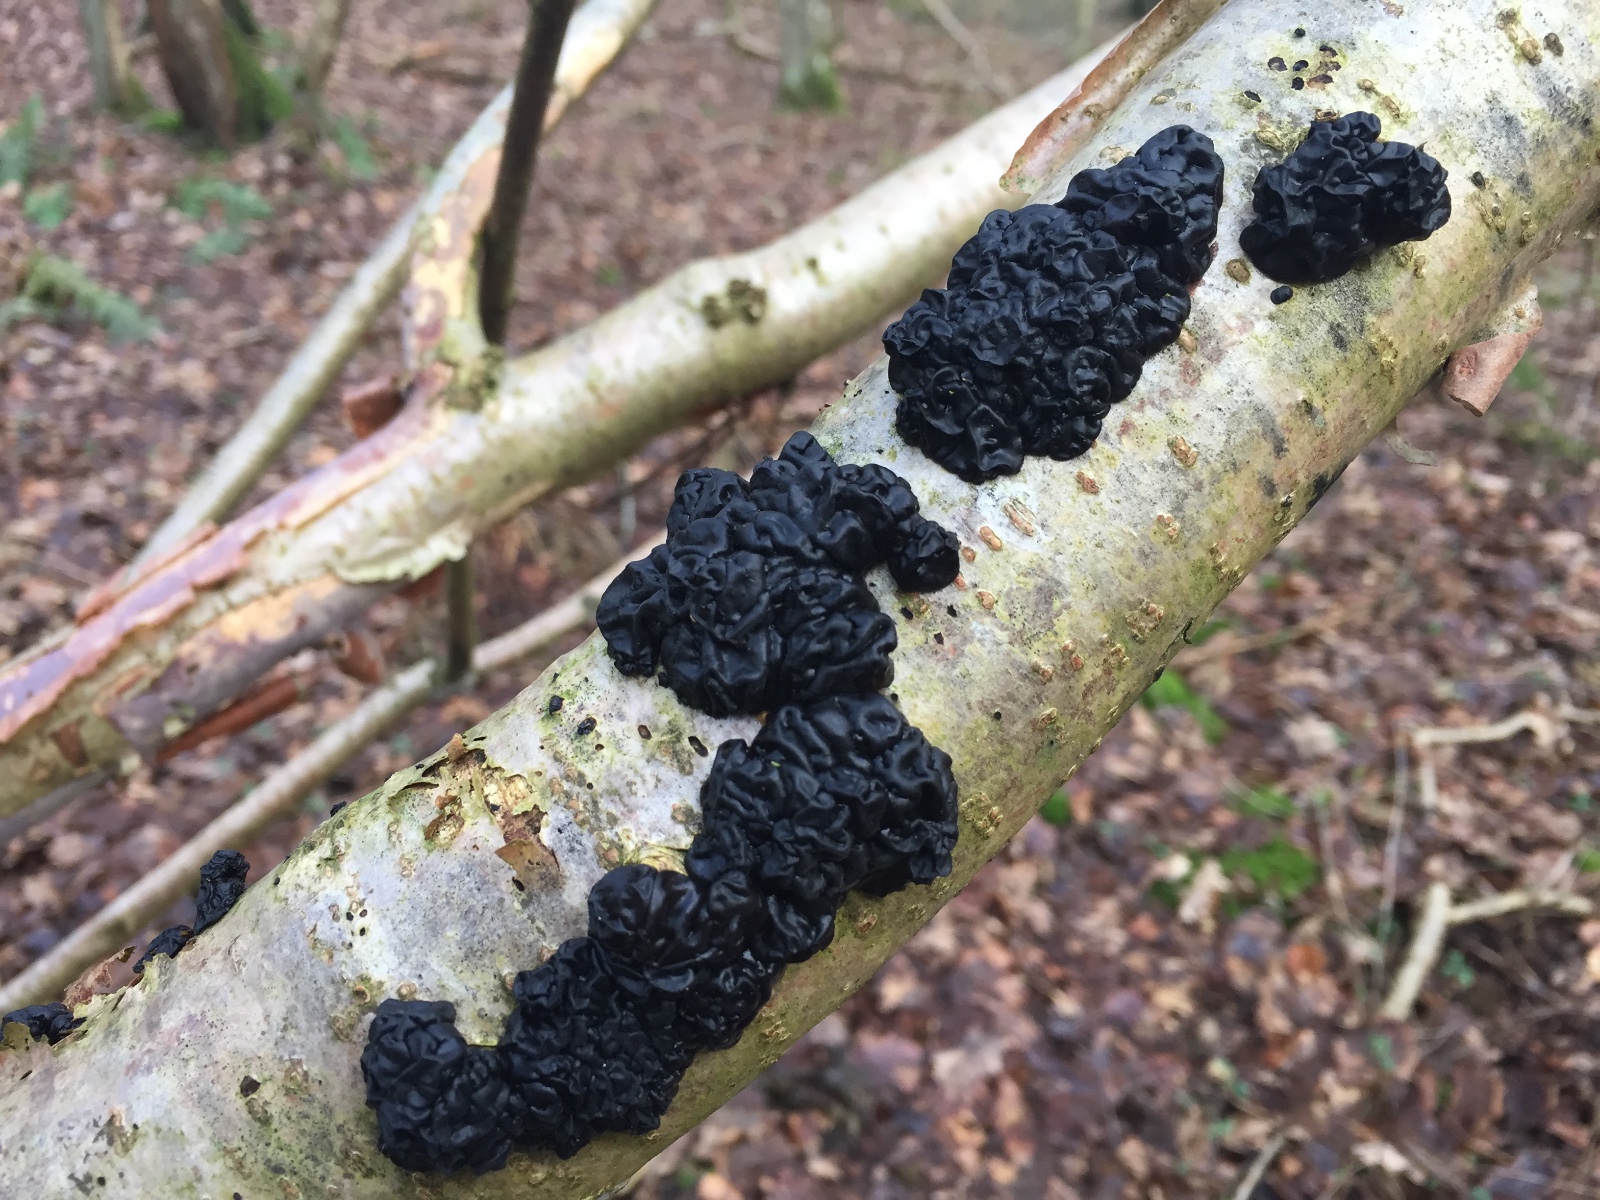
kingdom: Fungi
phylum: Basidiomycota
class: Agaricomycetes
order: Auriculariales
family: Auriculariaceae
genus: Exidia
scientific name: Exidia nigricans
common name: almindelig bævretop
